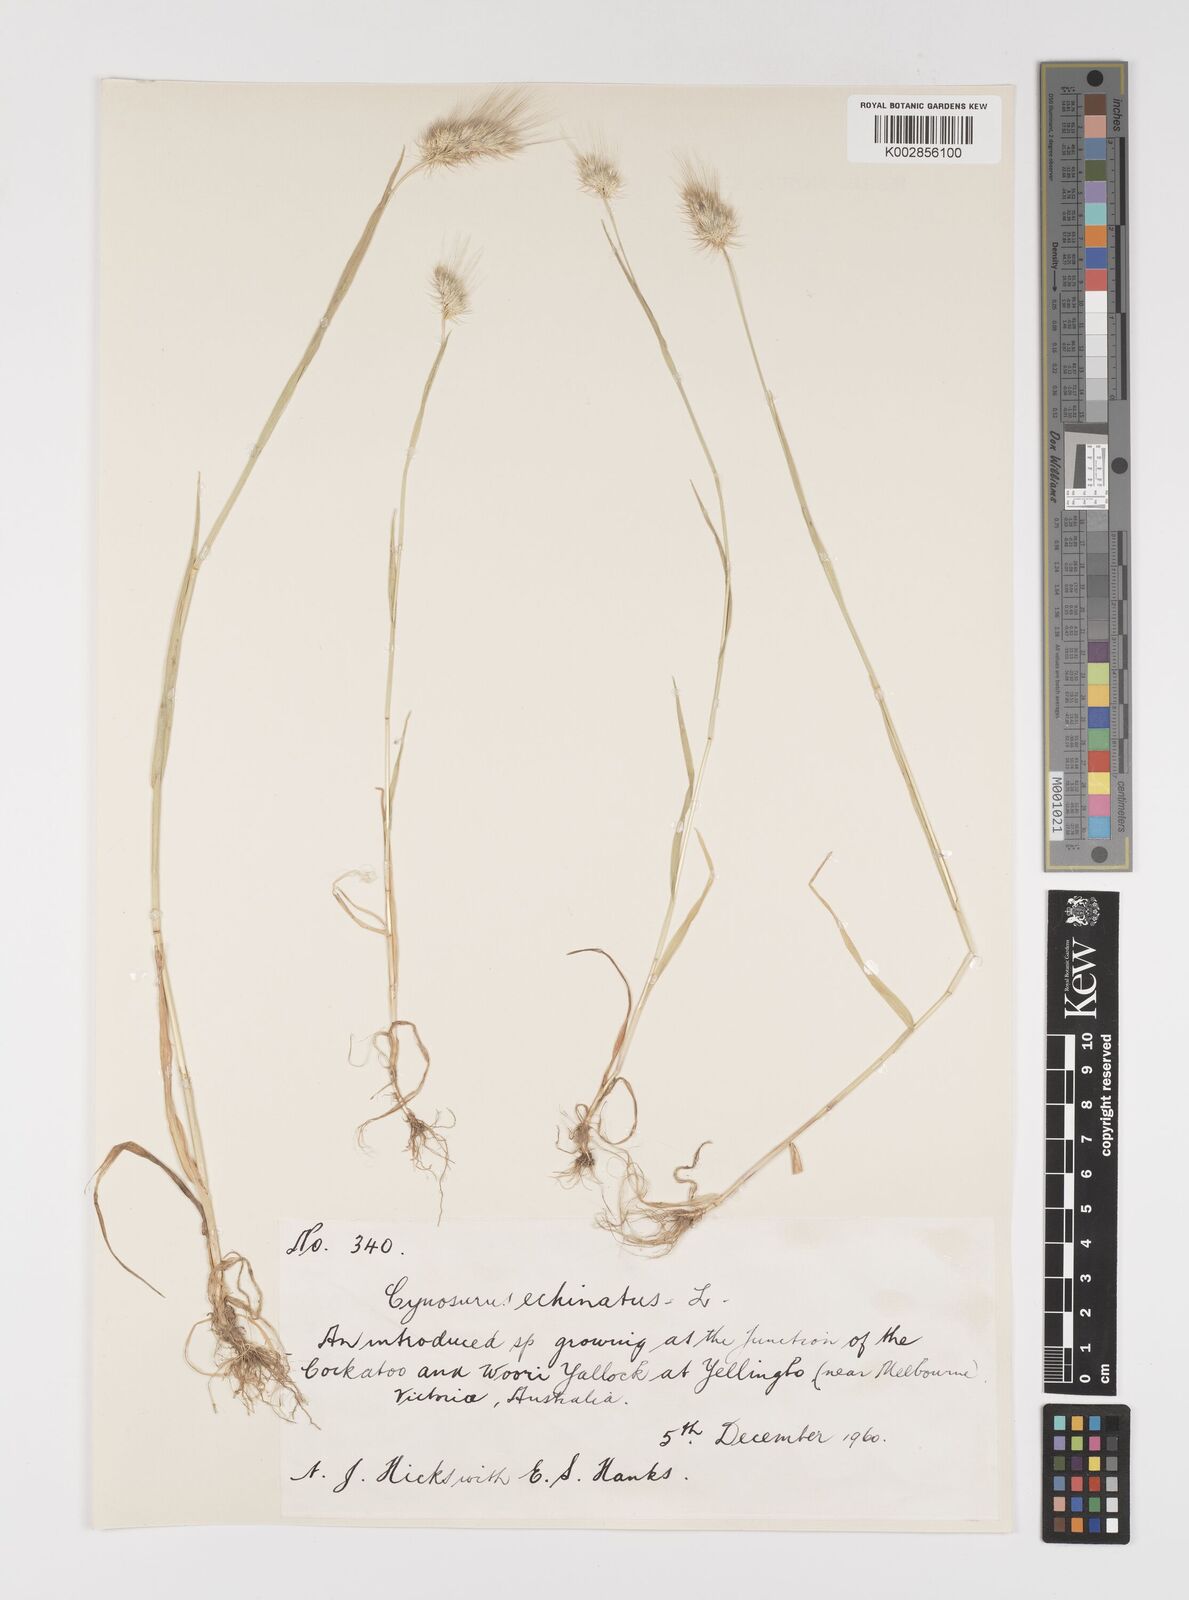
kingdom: Plantae
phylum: Tracheophyta
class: Liliopsida
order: Poales
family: Poaceae
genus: Cynosurus
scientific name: Cynosurus echinatus
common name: Rough dog's-tail
